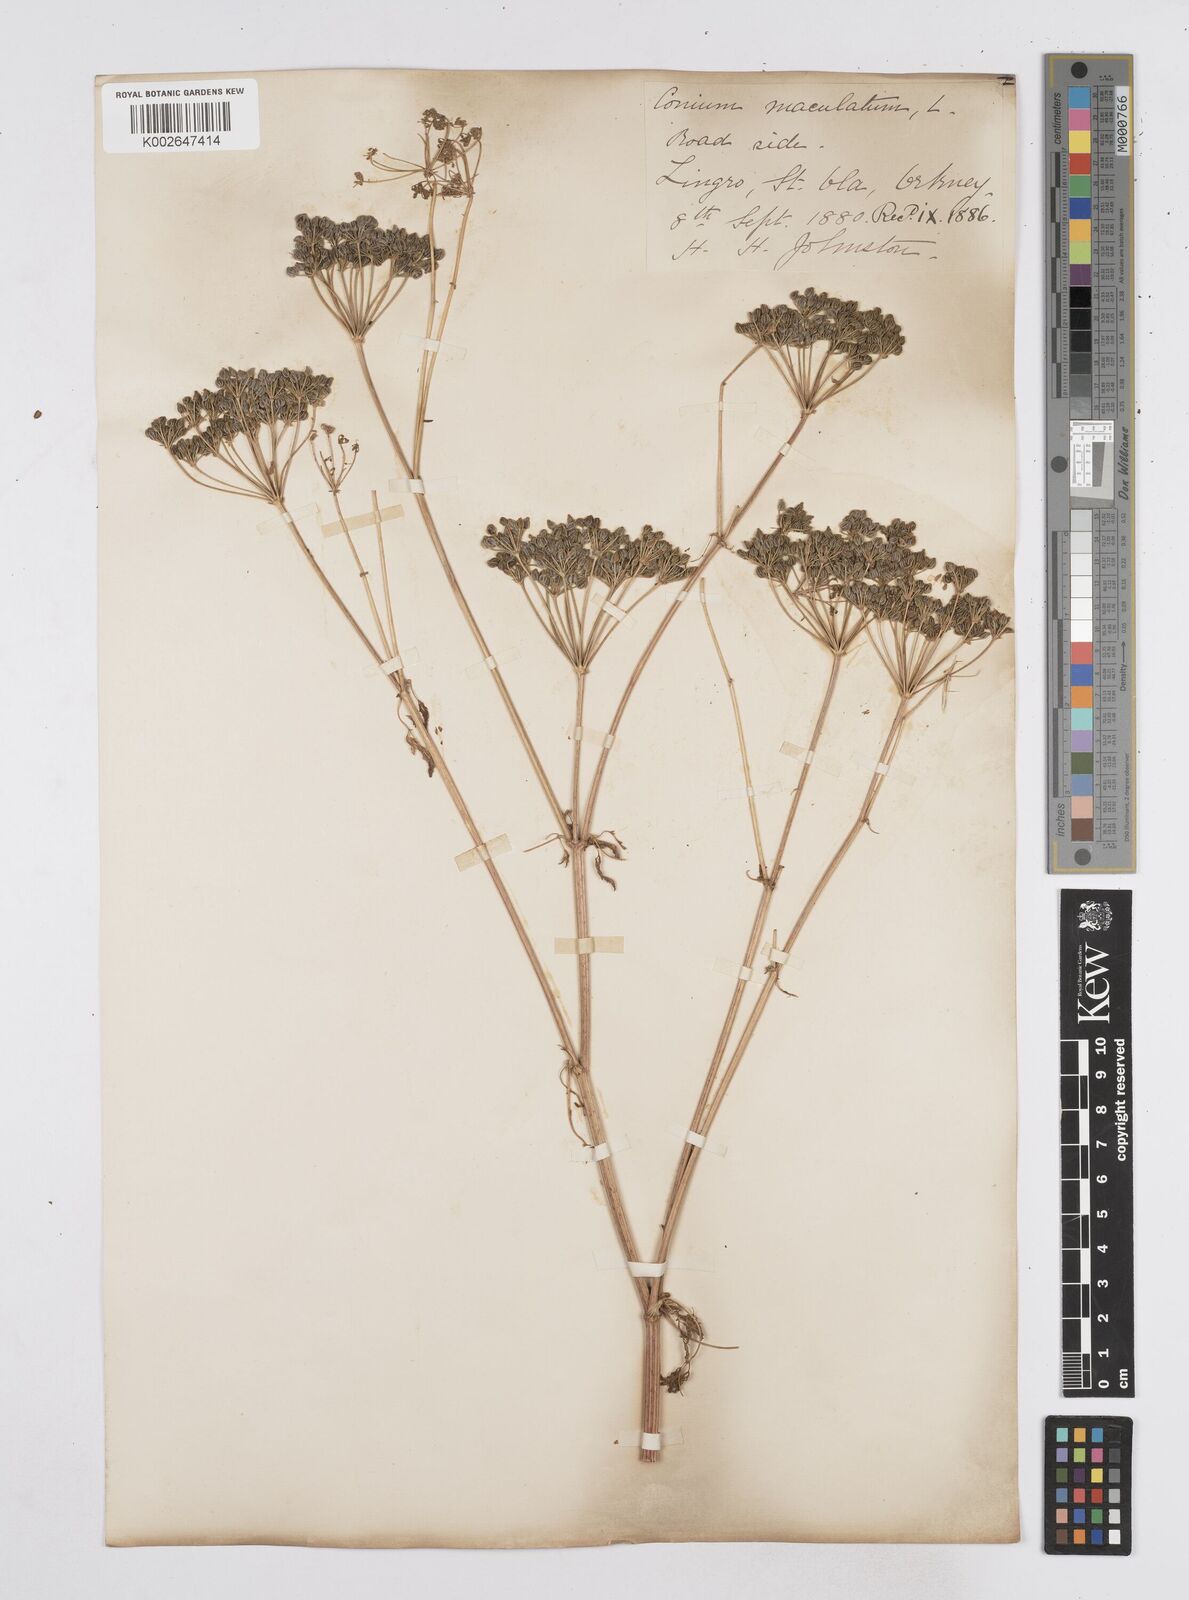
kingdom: Plantae
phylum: Tracheophyta
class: Magnoliopsida
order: Apiales
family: Apiaceae
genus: Conium
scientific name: Conium maculatum
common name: Hemlock
